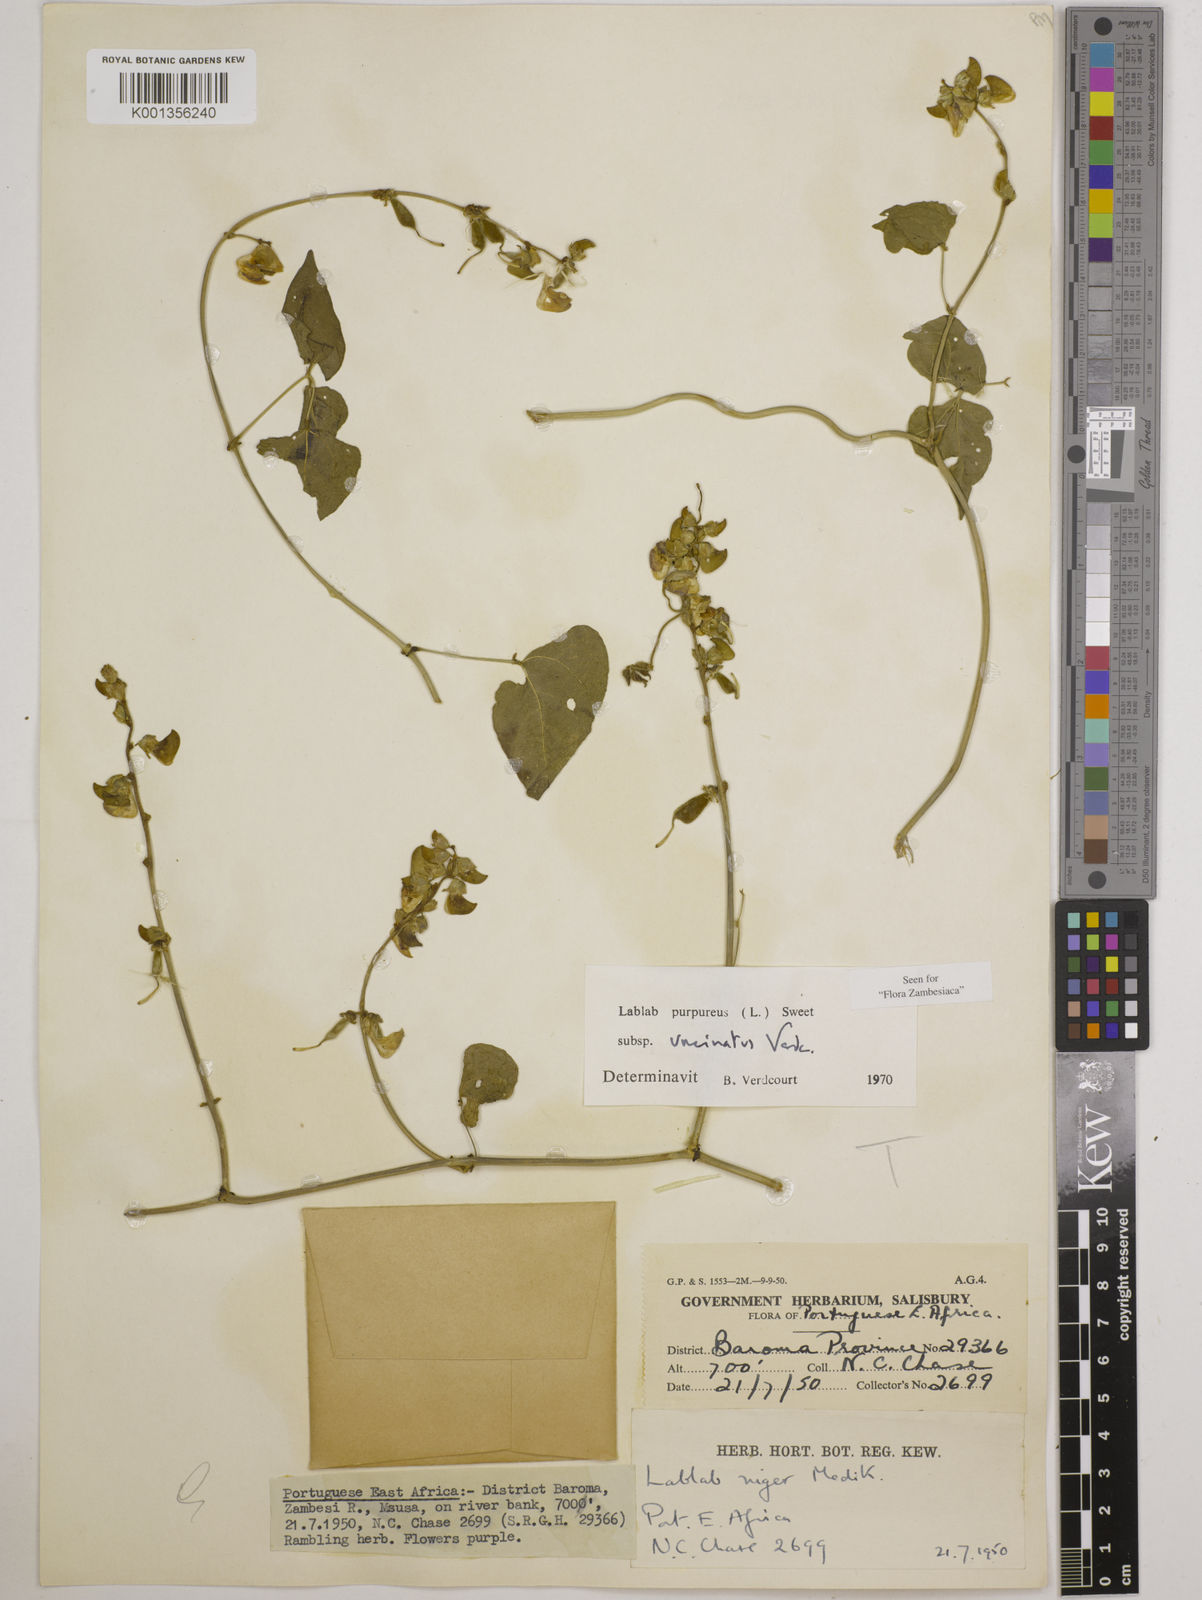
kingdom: Plantae
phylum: Tracheophyta
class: Magnoliopsida
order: Fabales
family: Fabaceae
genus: Lablab
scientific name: Lablab purpureus
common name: Lablab-bean
